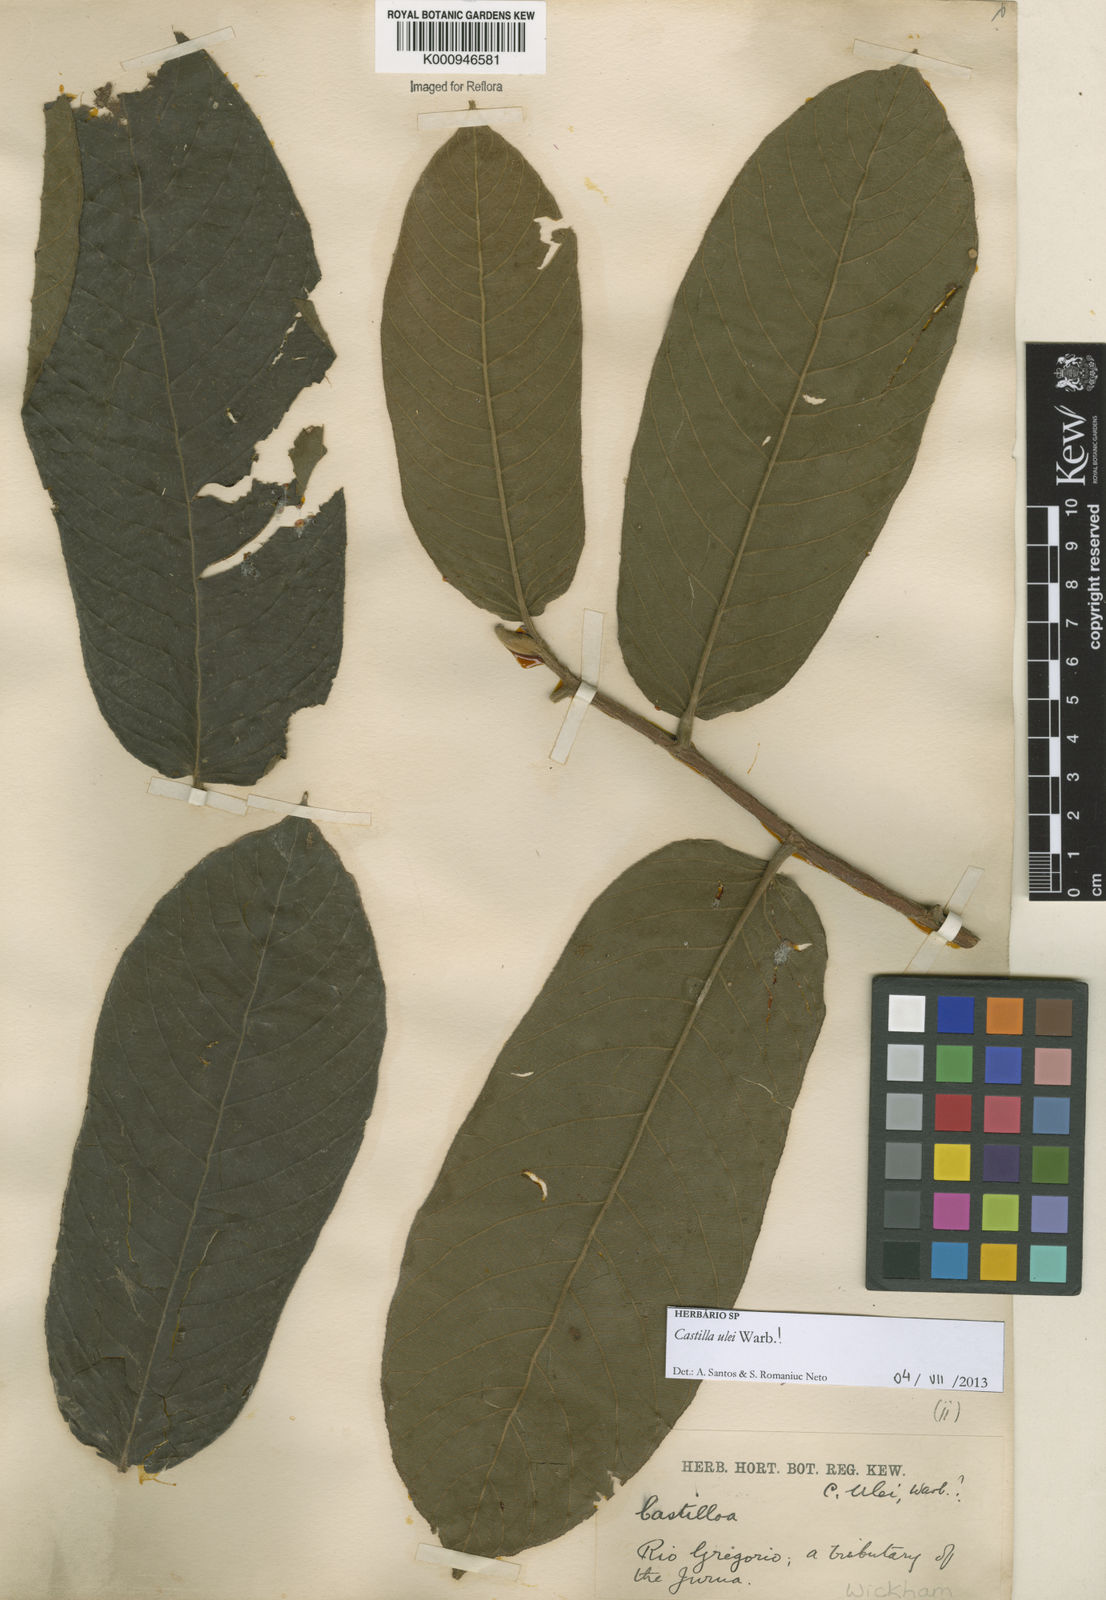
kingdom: Plantae
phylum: Tracheophyta
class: Magnoliopsida
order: Rosales
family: Moraceae
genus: Castilla
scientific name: Castilla ulei
